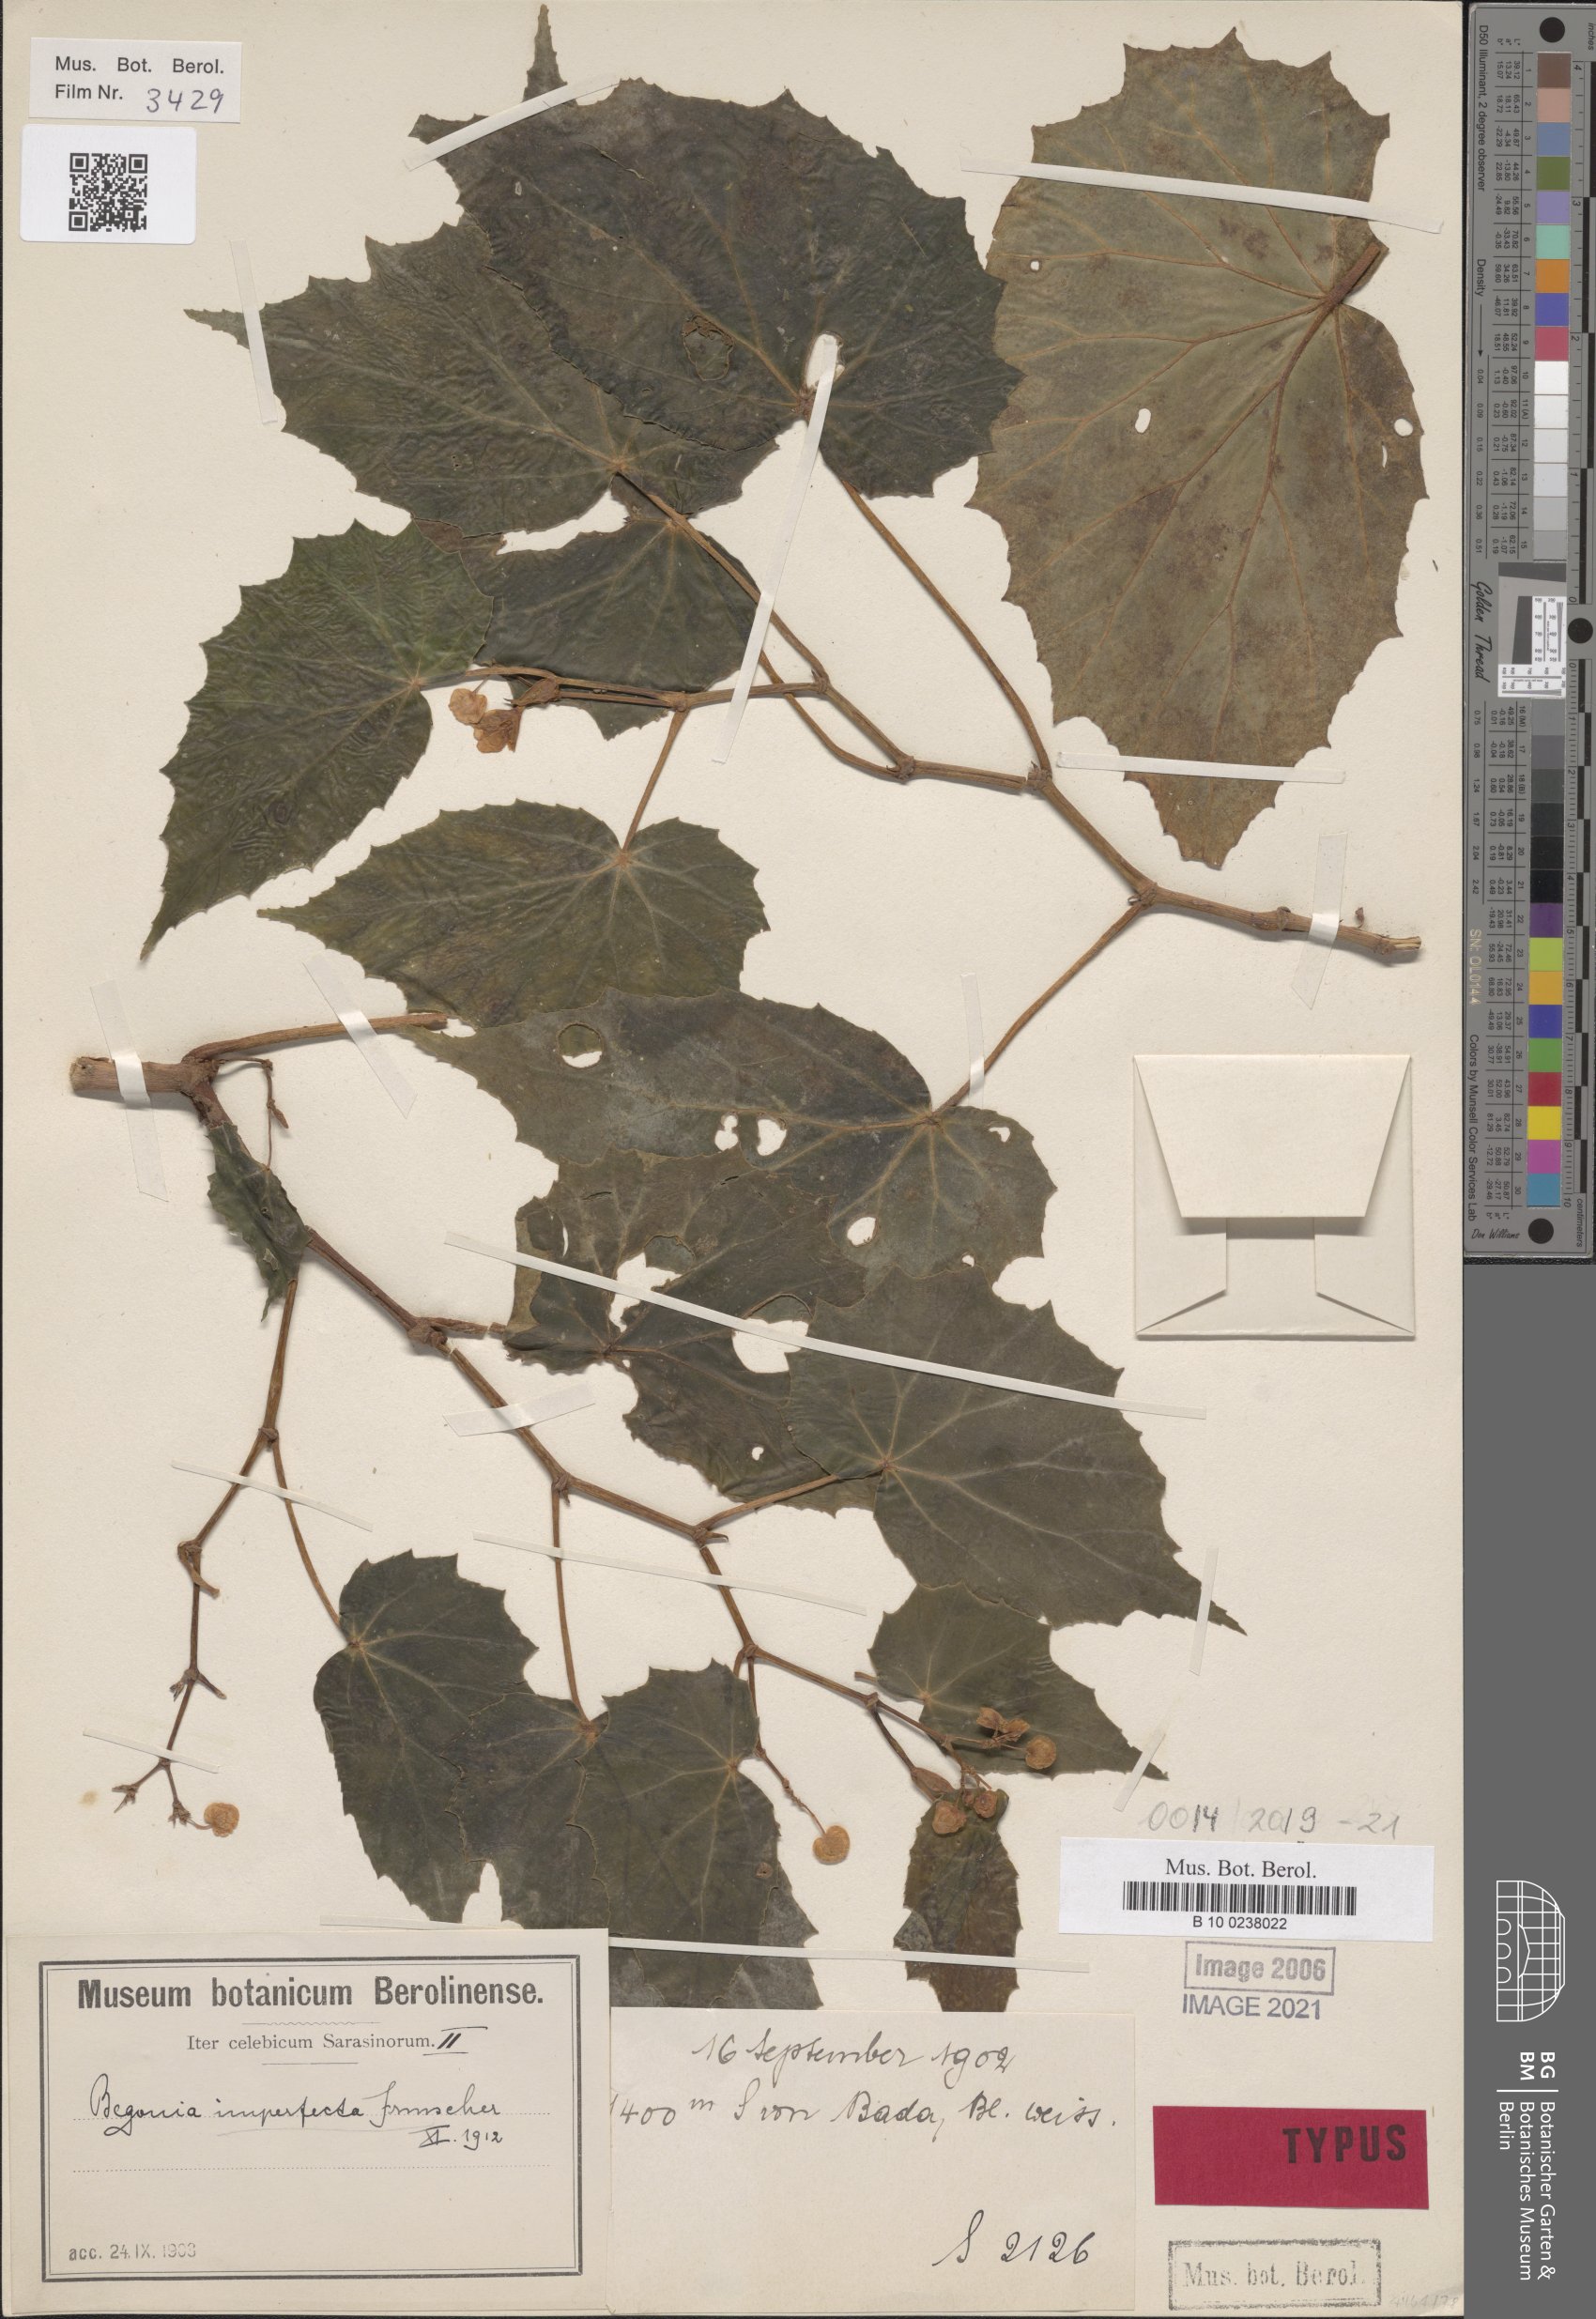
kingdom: Plantae
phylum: Tracheophyta
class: Magnoliopsida
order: Cucurbitales
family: Begoniaceae
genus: Begonia
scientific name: Begonia imperfecta
